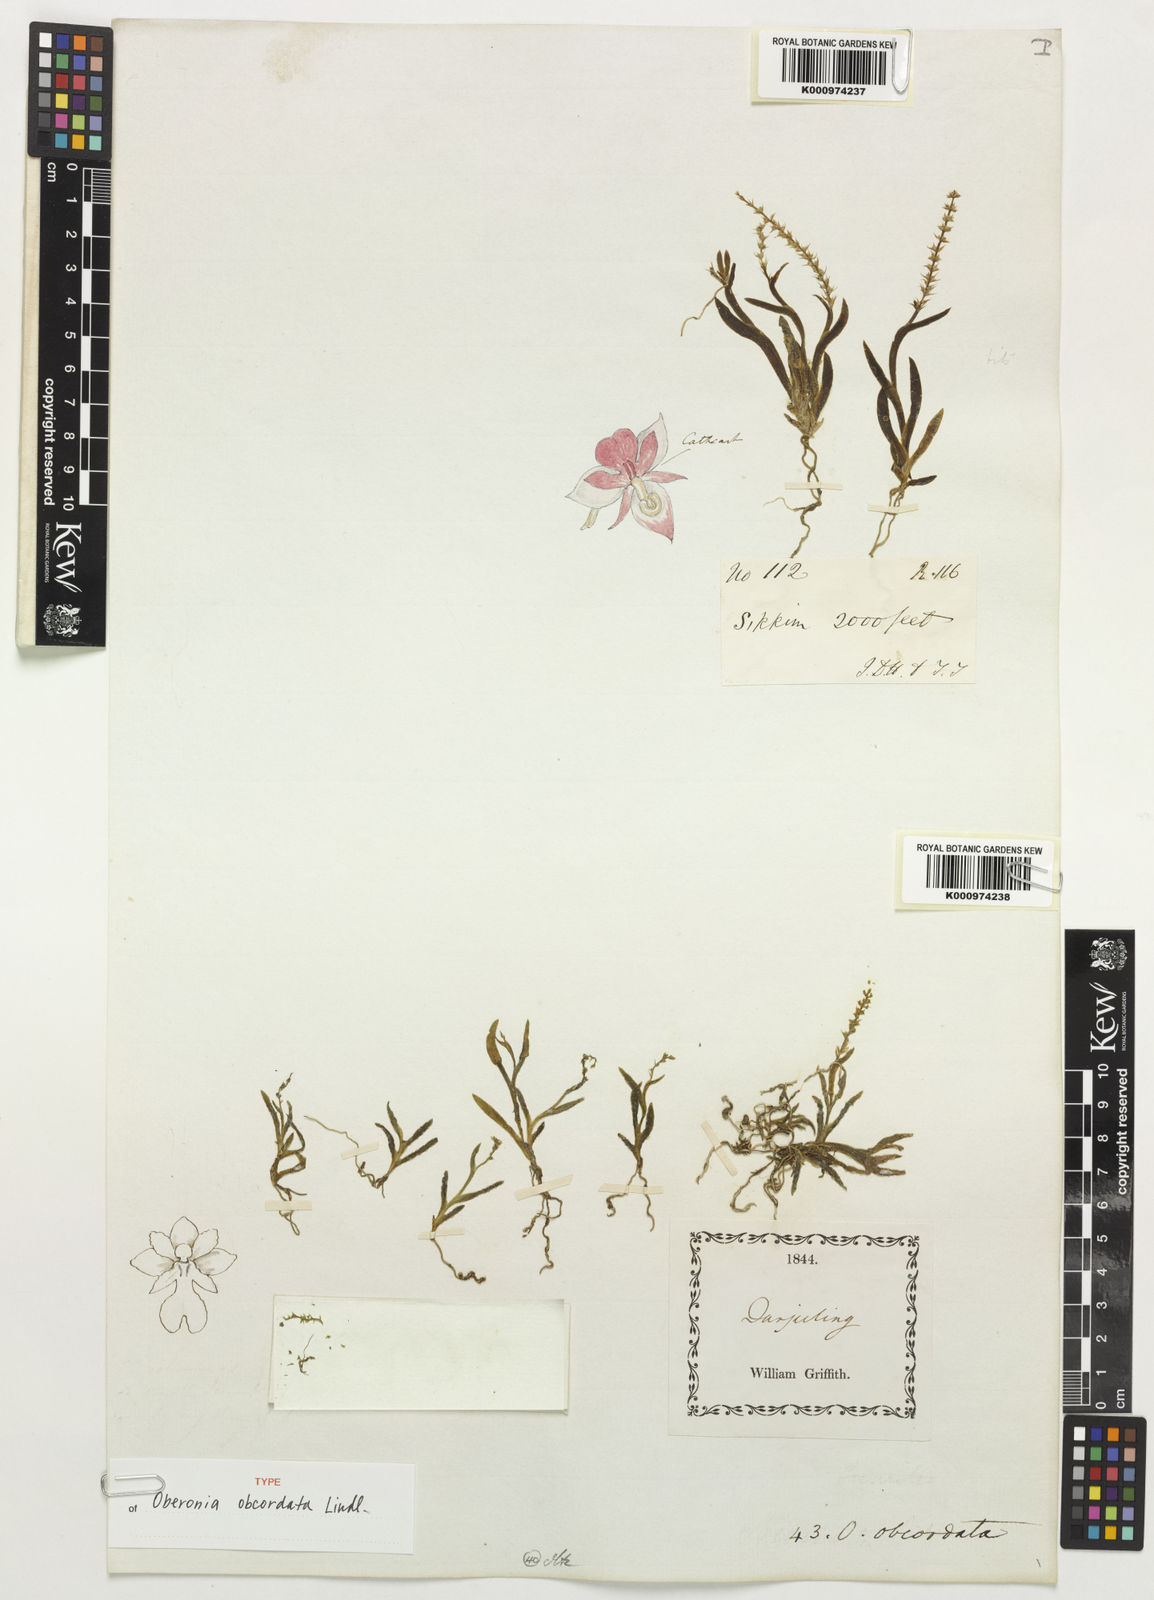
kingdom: Plantae
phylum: Tracheophyta
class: Liliopsida
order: Asparagales
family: Orchidaceae
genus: Oberonia
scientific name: Oberonia obcordata
